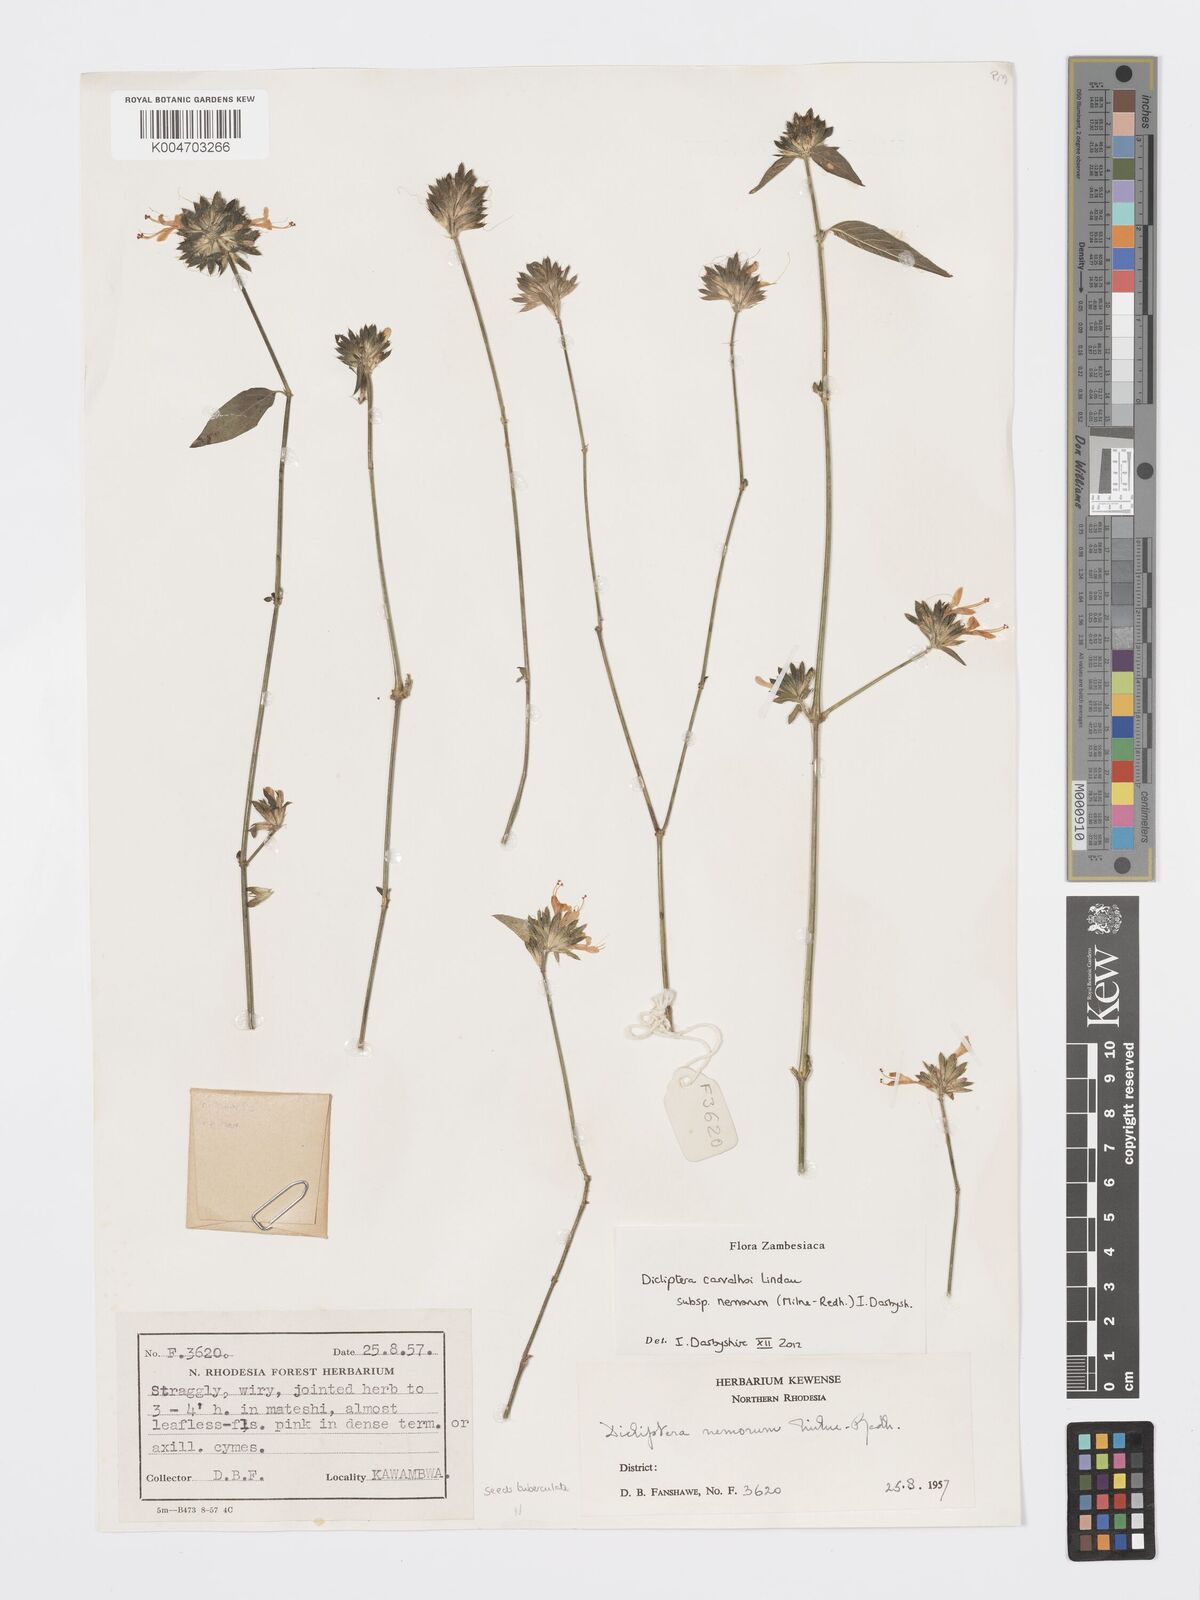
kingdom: Plantae
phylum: Tracheophyta
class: Magnoliopsida
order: Lamiales
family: Acanthaceae
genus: Dicliptera
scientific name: Dicliptera carvalhoi
